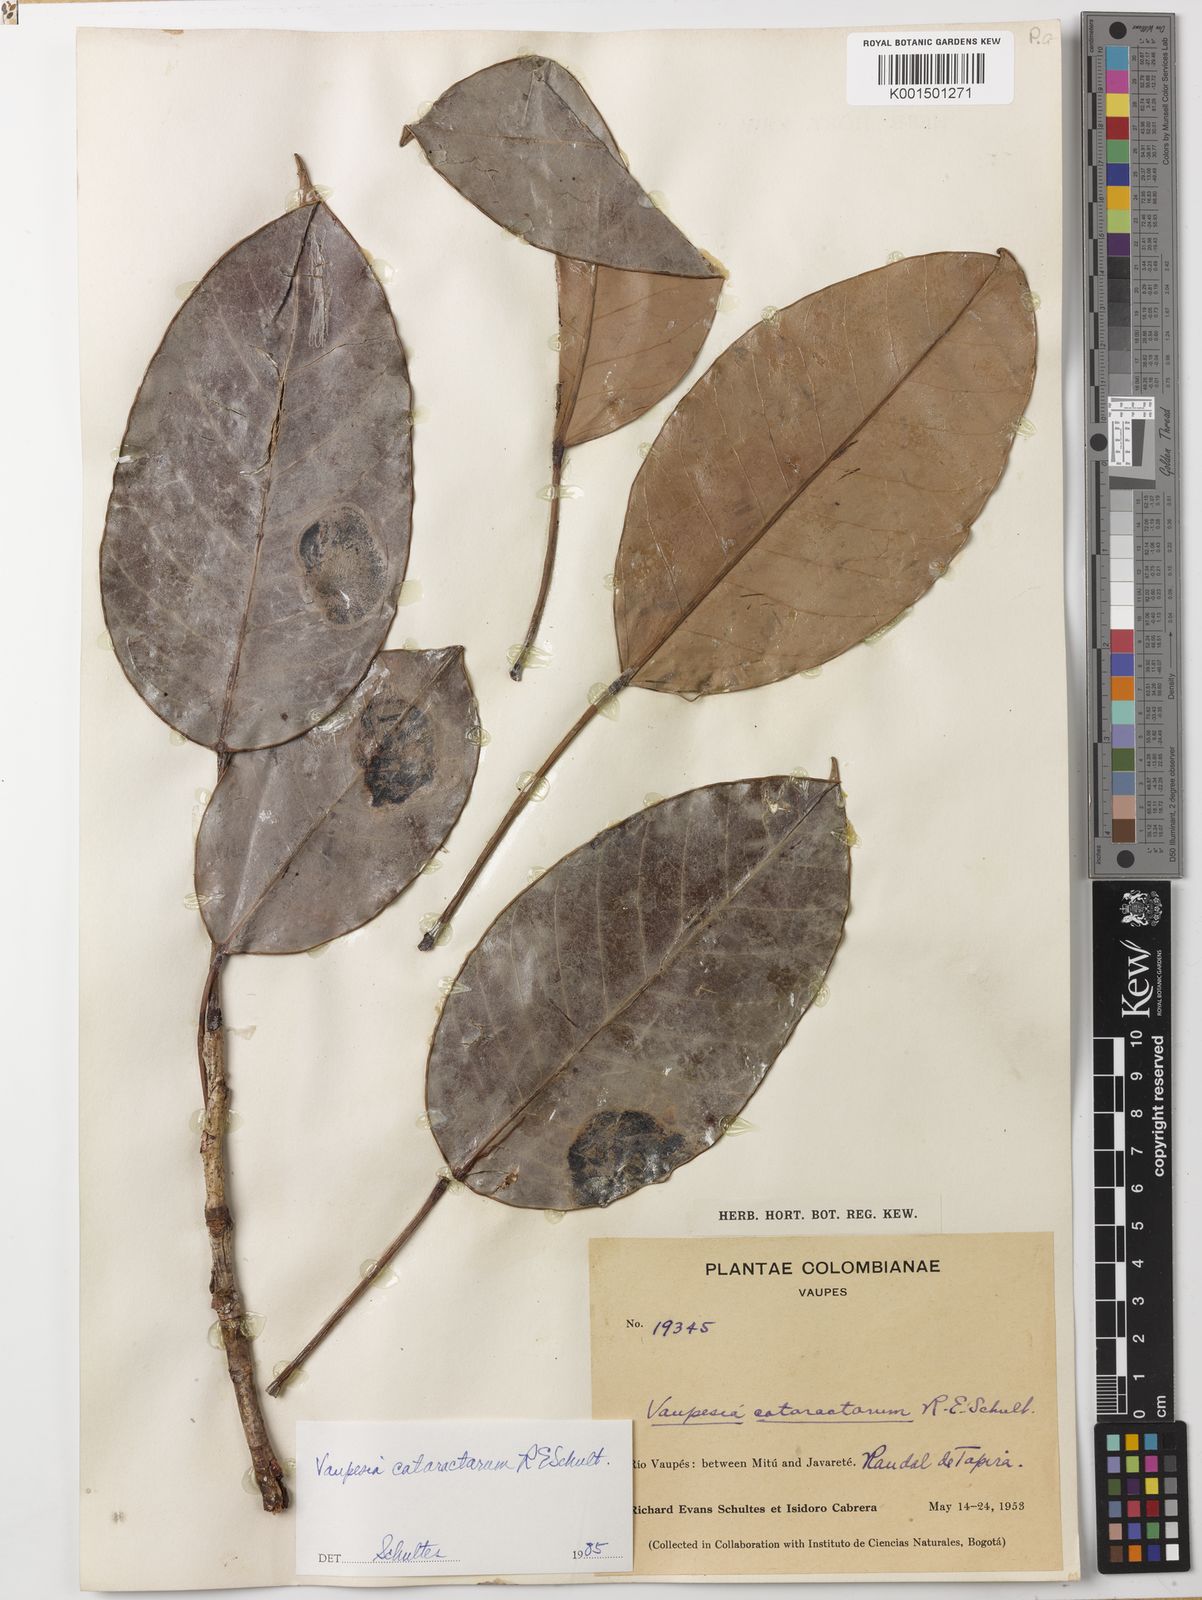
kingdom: Plantae
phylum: Tracheophyta
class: Magnoliopsida
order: Malpighiales
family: Euphorbiaceae
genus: Vaupesia
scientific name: Vaupesia cataractarum
